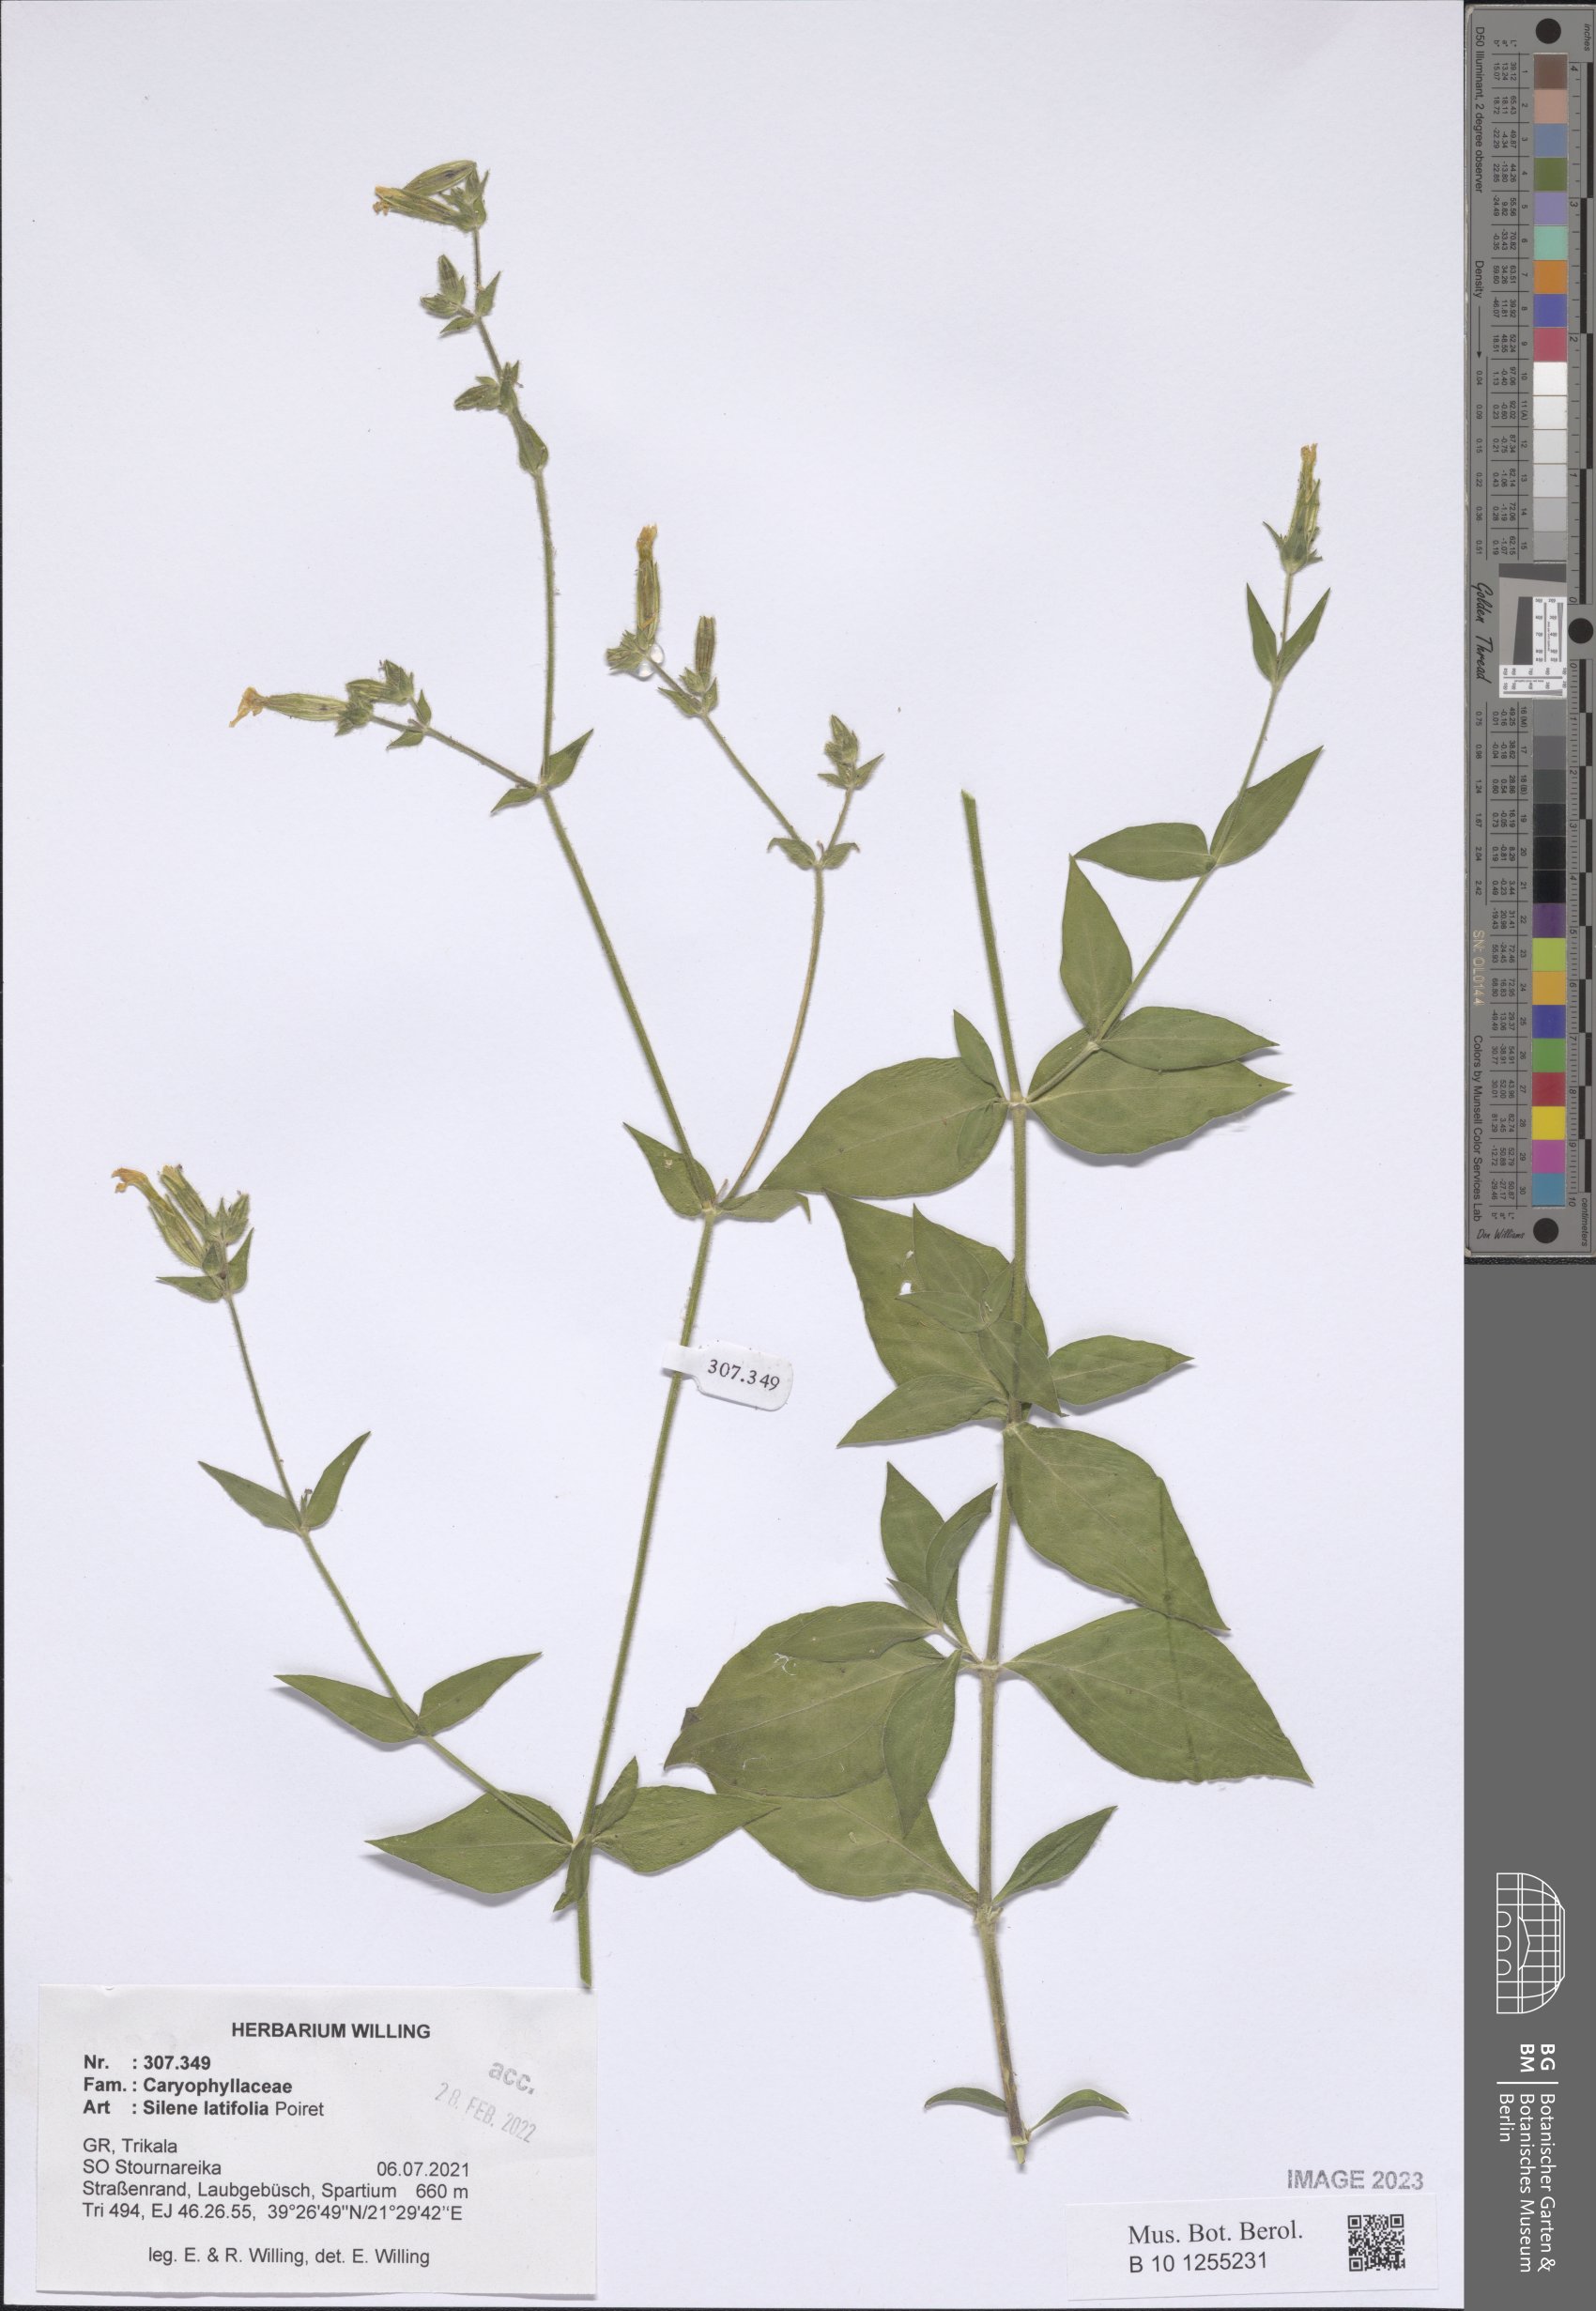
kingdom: Plantae
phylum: Tracheophyta
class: Magnoliopsida
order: Caryophyllales
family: Caryophyllaceae
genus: Silene
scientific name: Silene latifolia
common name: White campion
